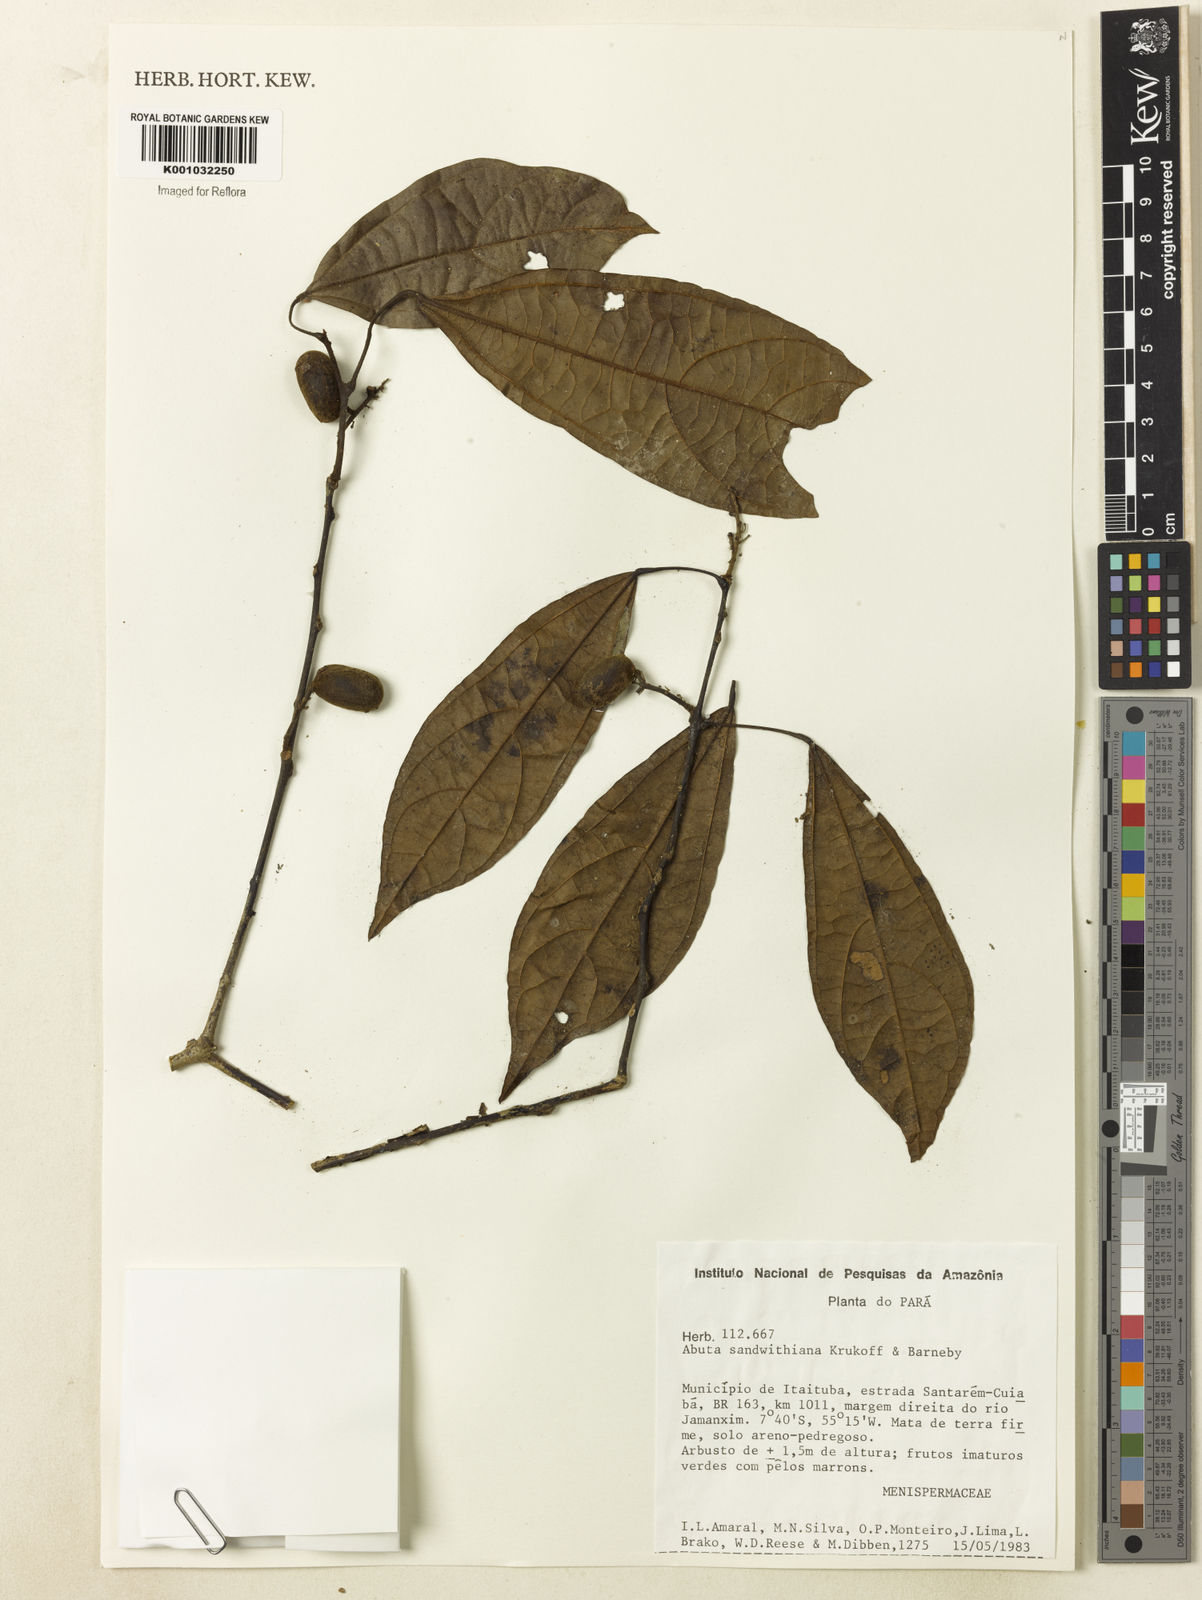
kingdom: Plantae
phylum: Tracheophyta
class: Magnoliopsida
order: Ranunculales
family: Menispermaceae
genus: Abuta
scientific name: Abuta sandwithiana
